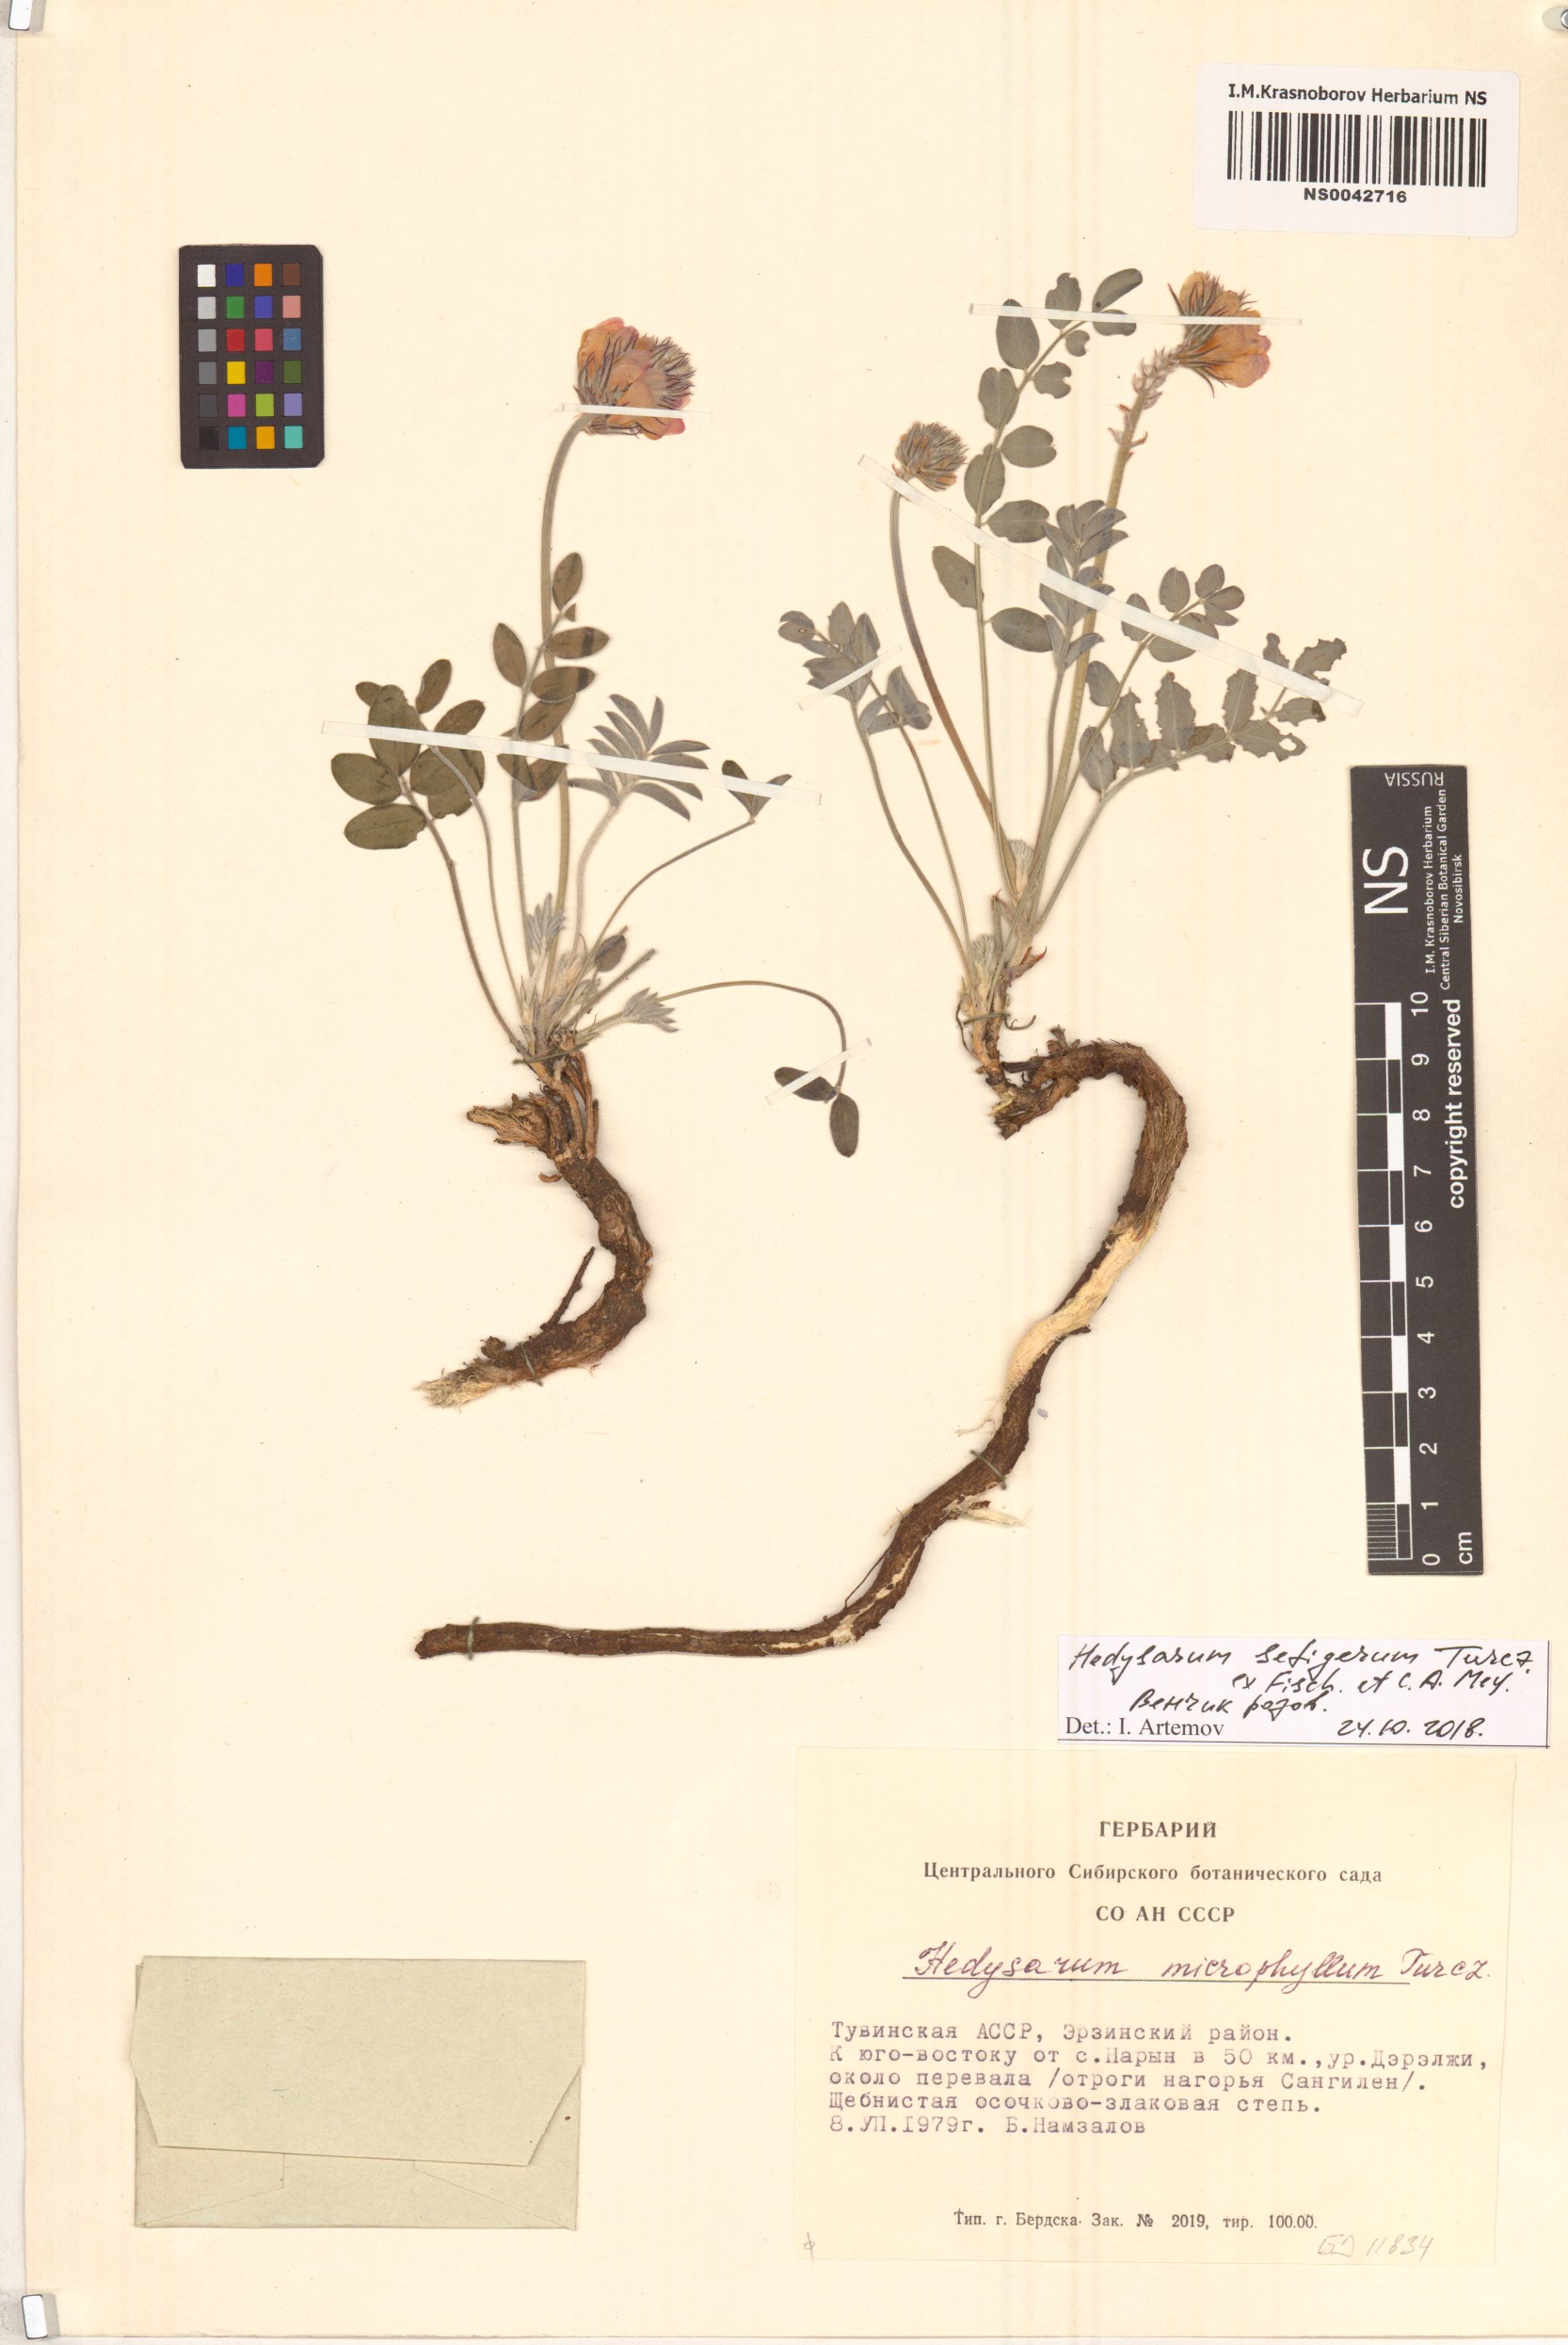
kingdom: Plantae
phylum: Tracheophyta
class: Magnoliopsida
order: Fabales
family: Fabaceae
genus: Hedysarum
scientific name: Hedysarum setigerum
